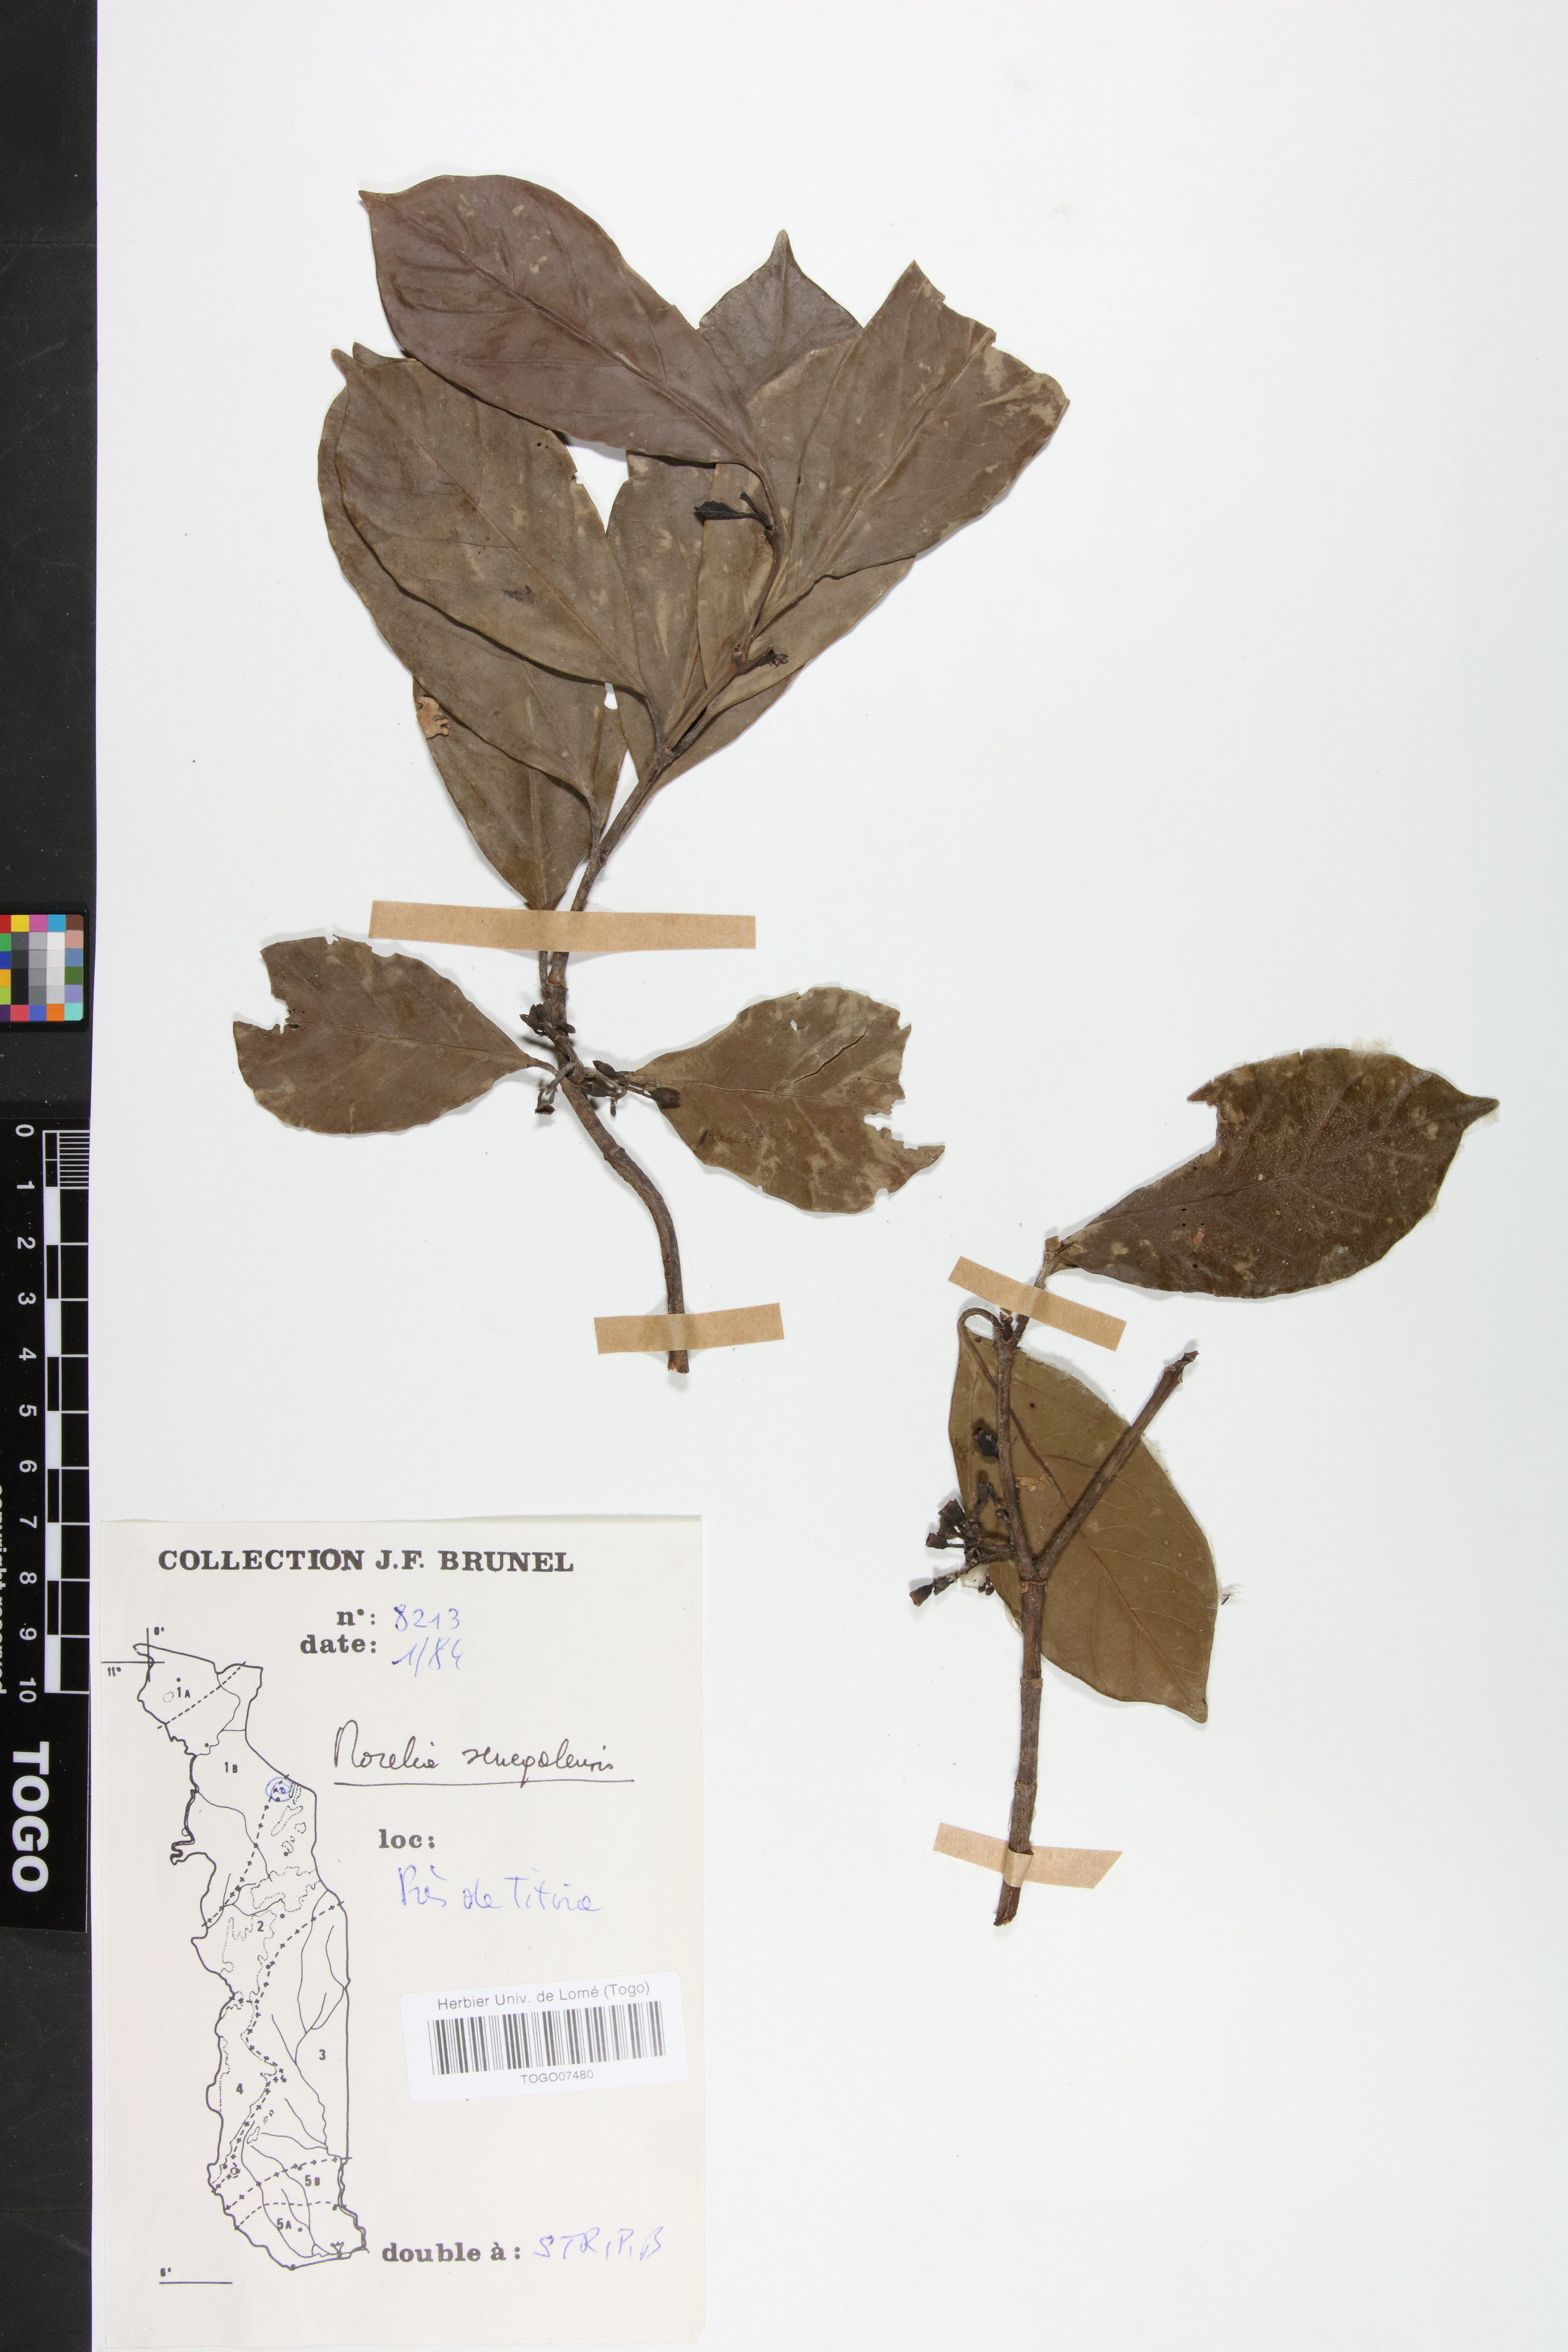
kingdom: Plantae
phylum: Tracheophyta
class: Magnoliopsida
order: Gentianales
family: Rubiaceae
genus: Morelia
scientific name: Morelia senegalensis
